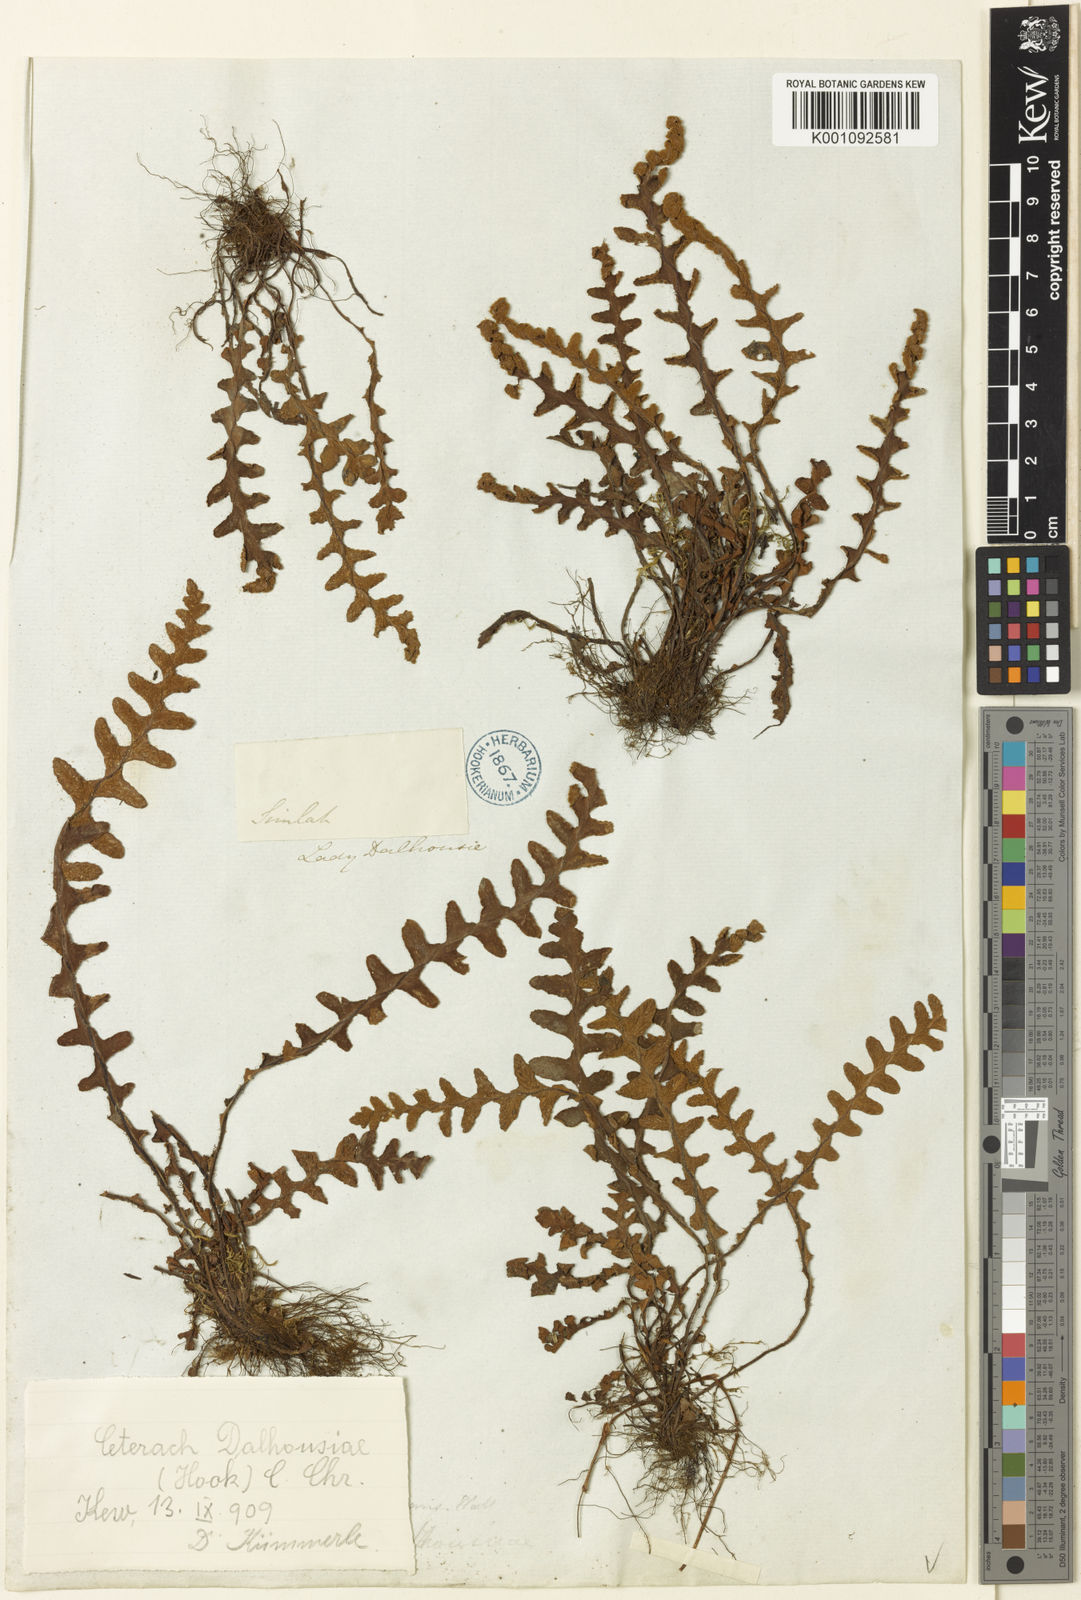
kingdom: Plantae
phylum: Tracheophyta
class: Polypodiopsida
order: Polypodiales
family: Aspleniaceae
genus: Ceterach
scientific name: Ceterach
